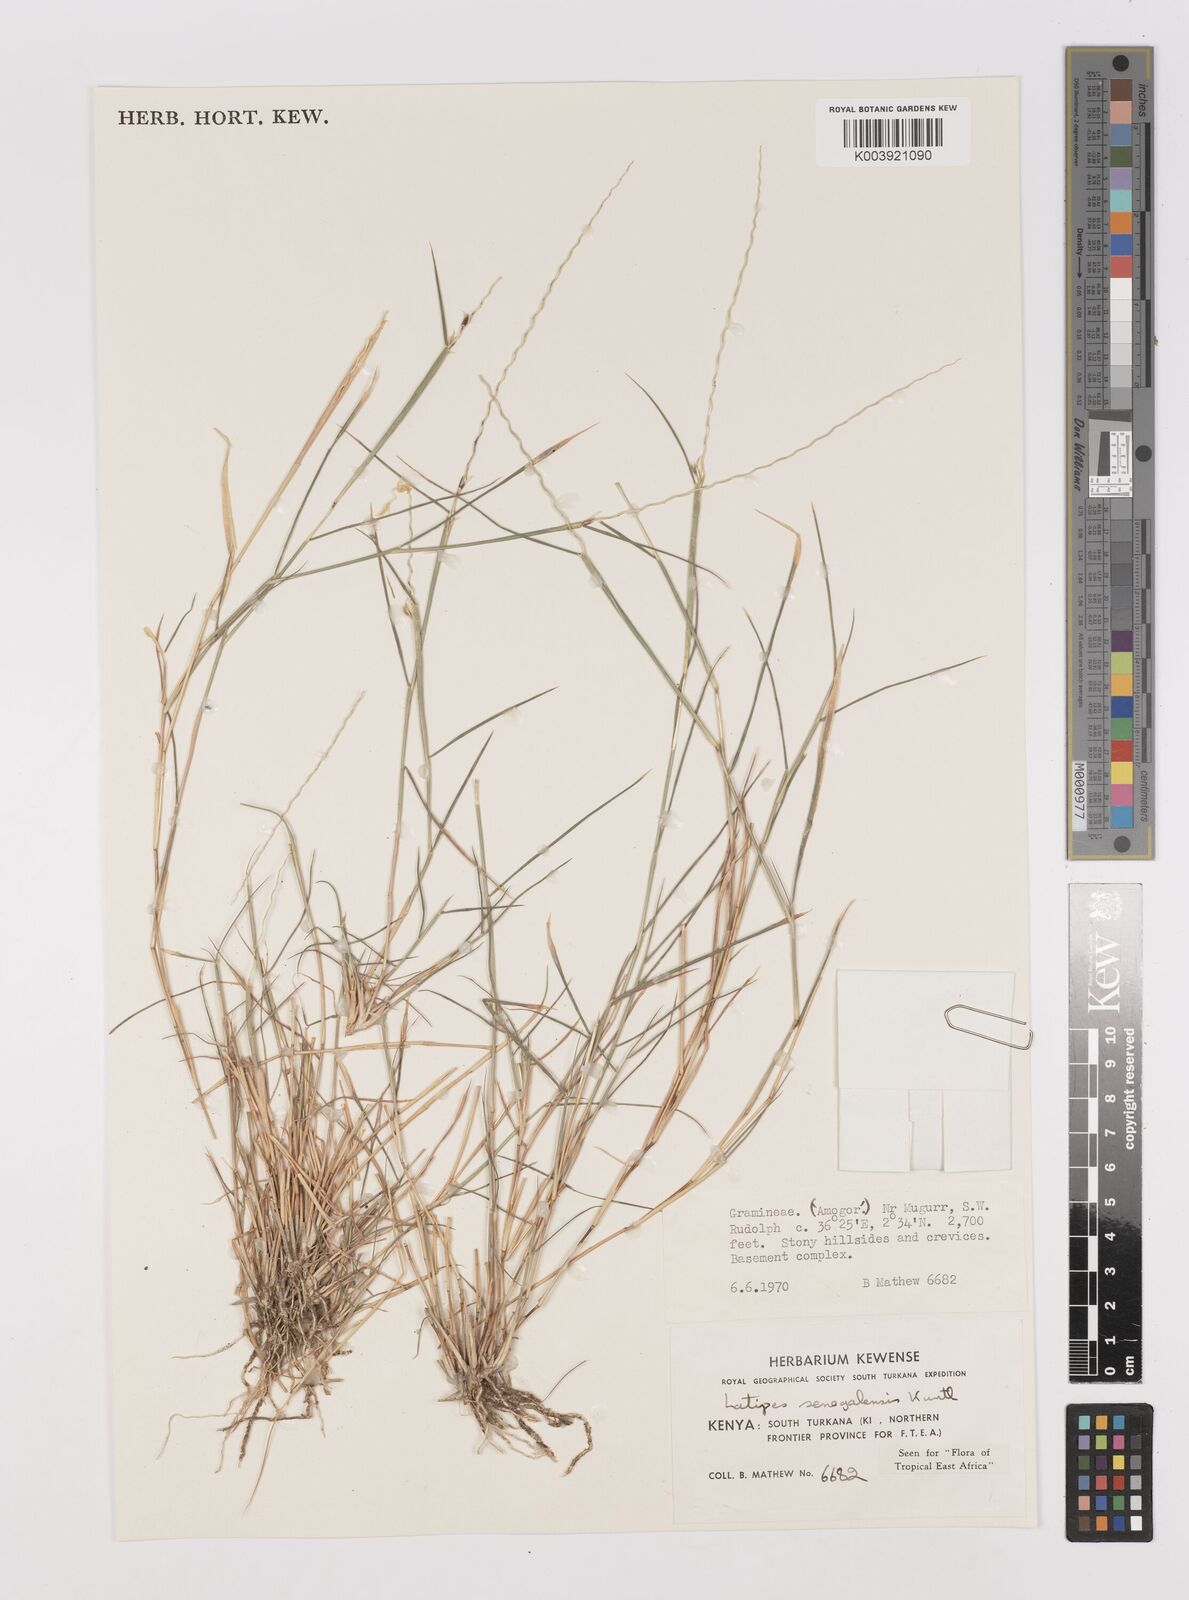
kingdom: Plantae
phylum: Tracheophyta
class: Liliopsida
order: Poales
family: Poaceae
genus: Leptothrium
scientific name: Leptothrium senegalense
